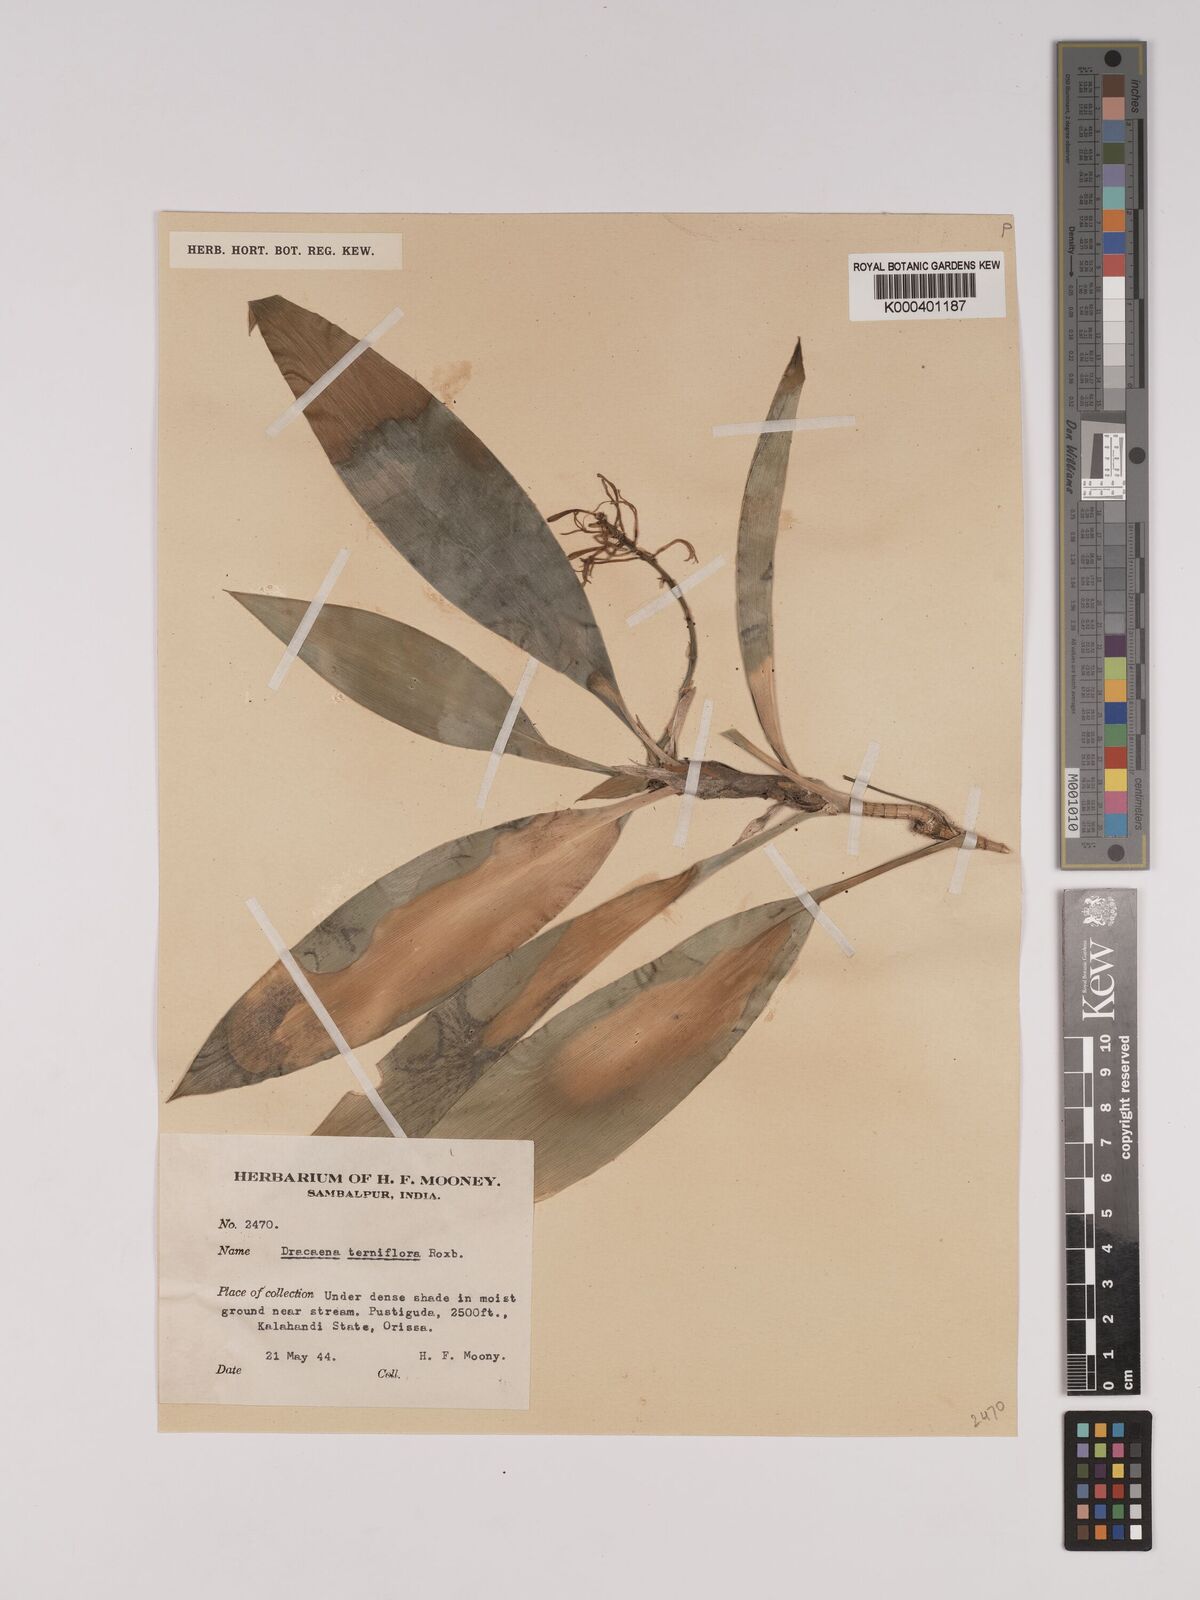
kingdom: Plantae
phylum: Tracheophyta
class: Liliopsida
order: Asparagales
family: Asparagaceae
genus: Dracaena
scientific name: Dracaena terniflora
